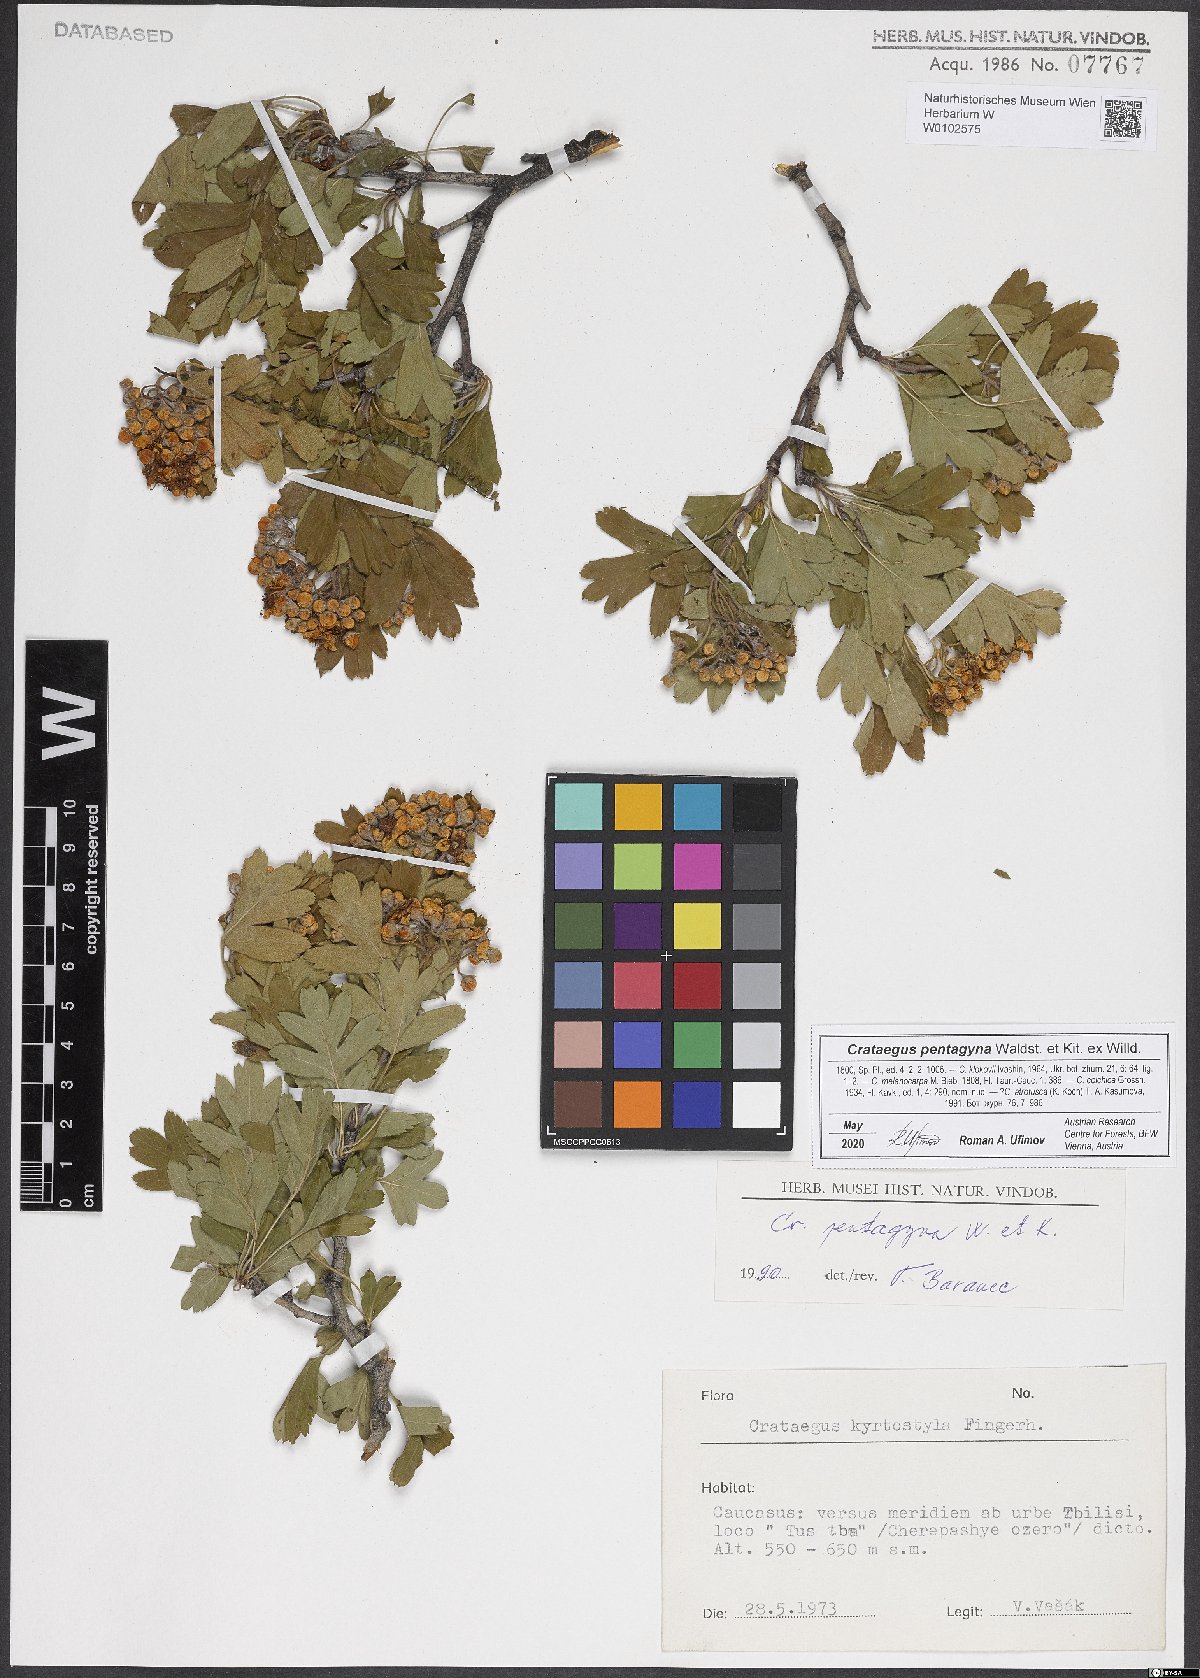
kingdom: Plantae
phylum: Tracheophyta
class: Magnoliopsida
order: Rosales
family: Rosaceae
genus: Crataegus
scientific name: Crataegus pentagyna
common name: Small-flowered black hawthorn
